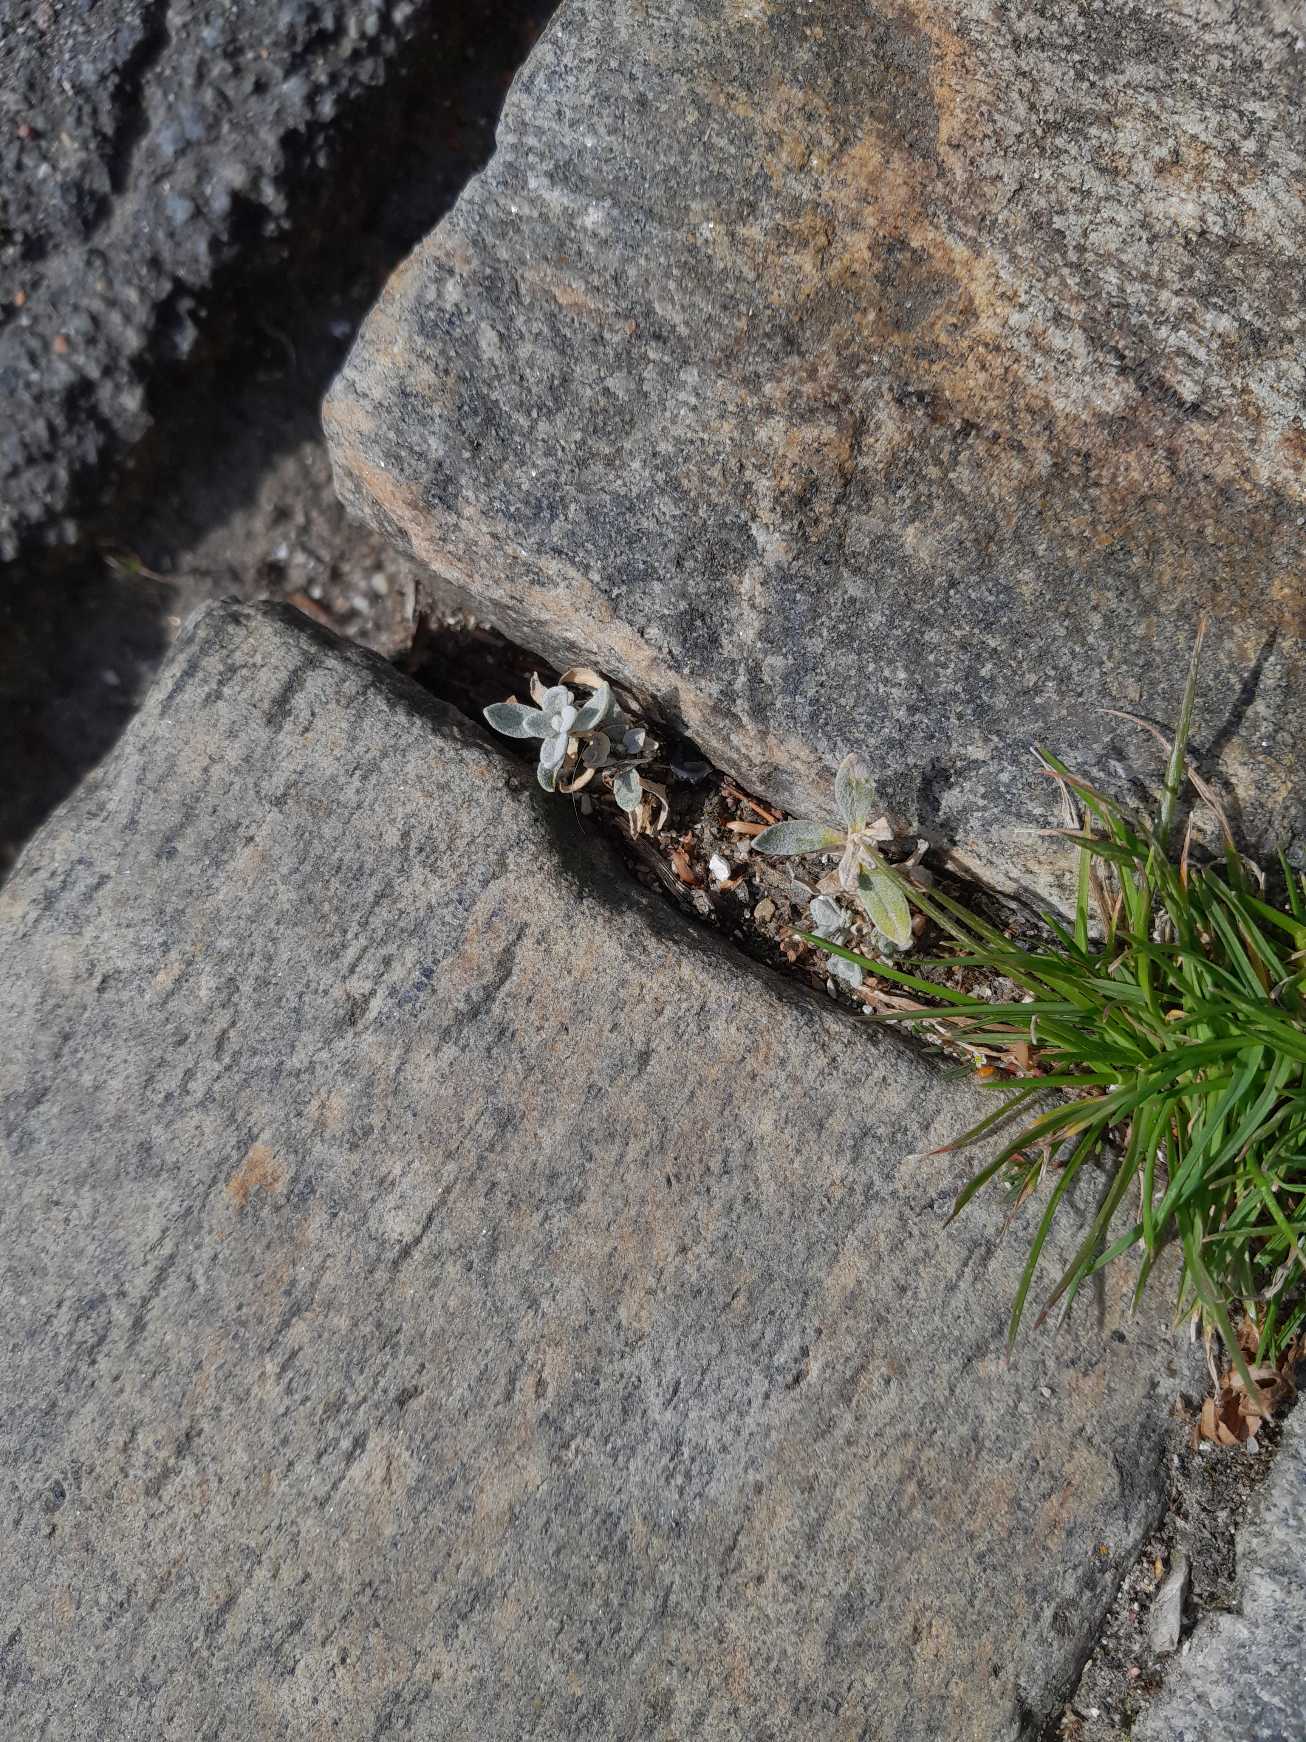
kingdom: Plantae
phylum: Tracheophyta
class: Magnoliopsida
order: Caryophyllales
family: Caryophyllaceae
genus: Cerastium
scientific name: Cerastium tomentosum
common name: Filtet hønsetarm
